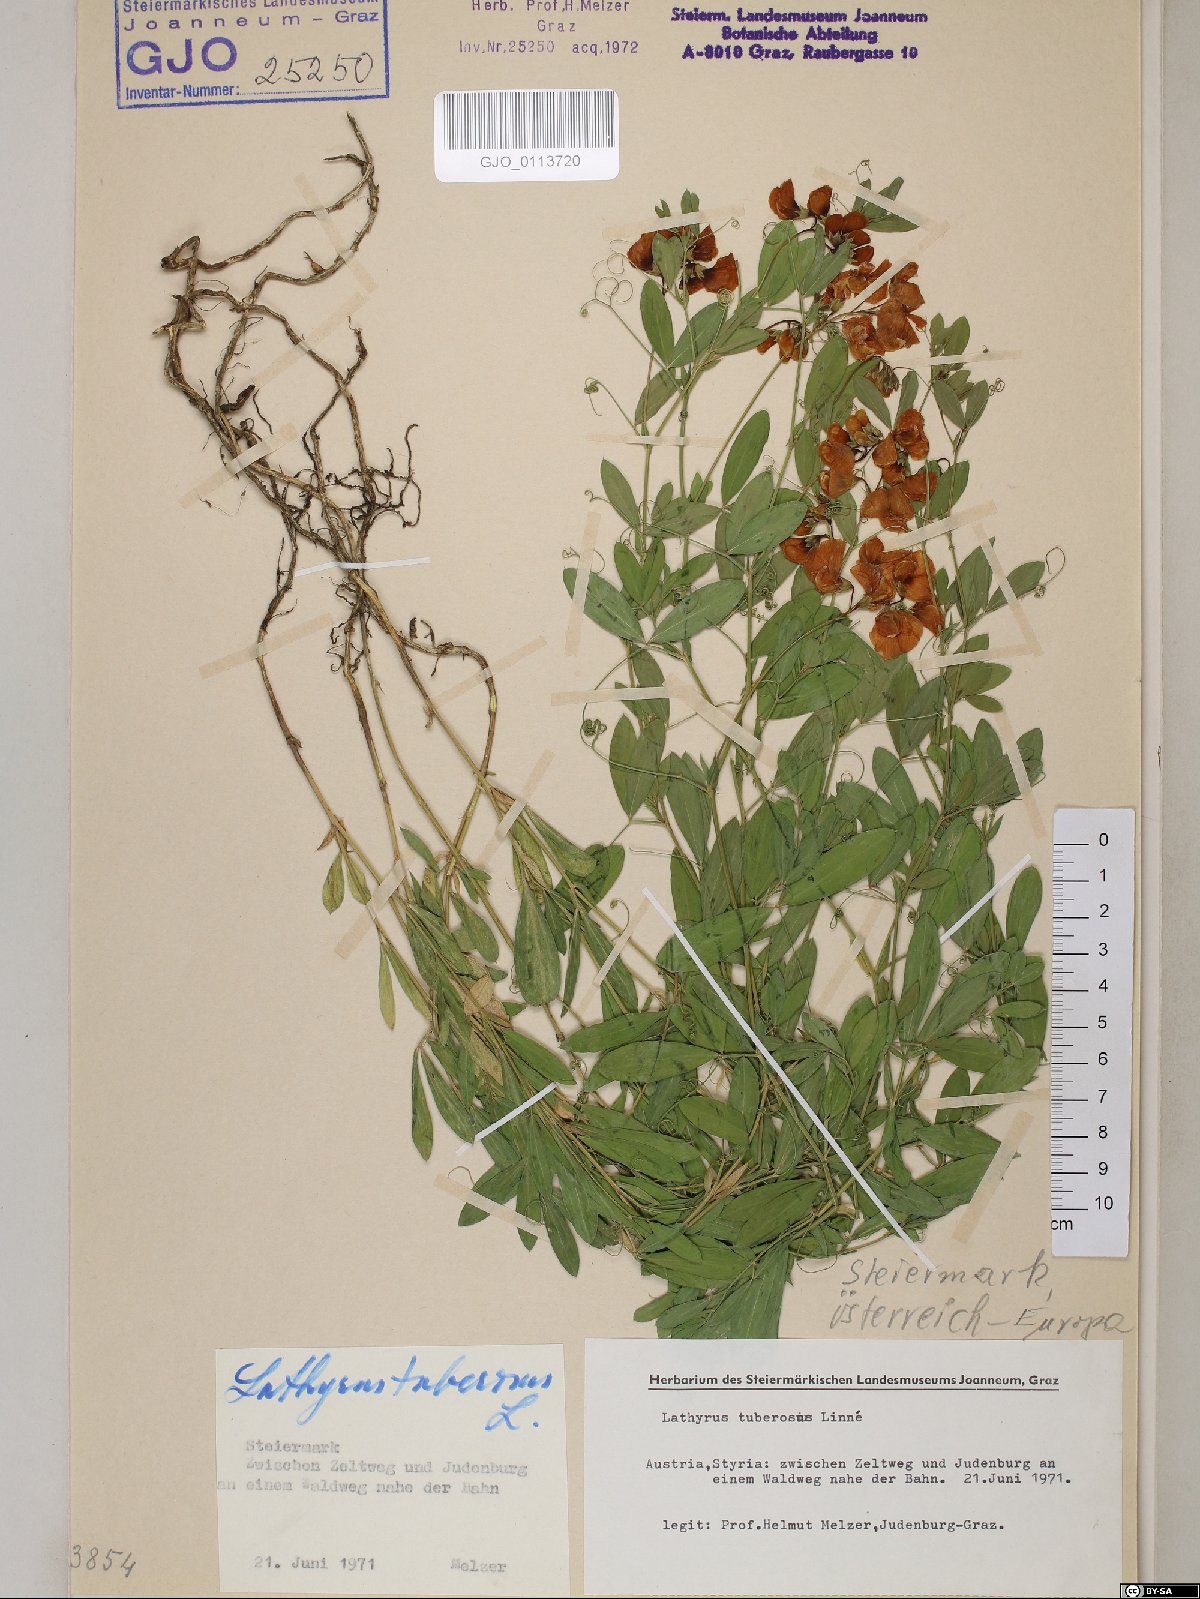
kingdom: Plantae
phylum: Tracheophyta
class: Magnoliopsida
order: Fabales
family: Fabaceae
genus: Lathyrus
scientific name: Lathyrus tuberosus
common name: Tuberous pea
